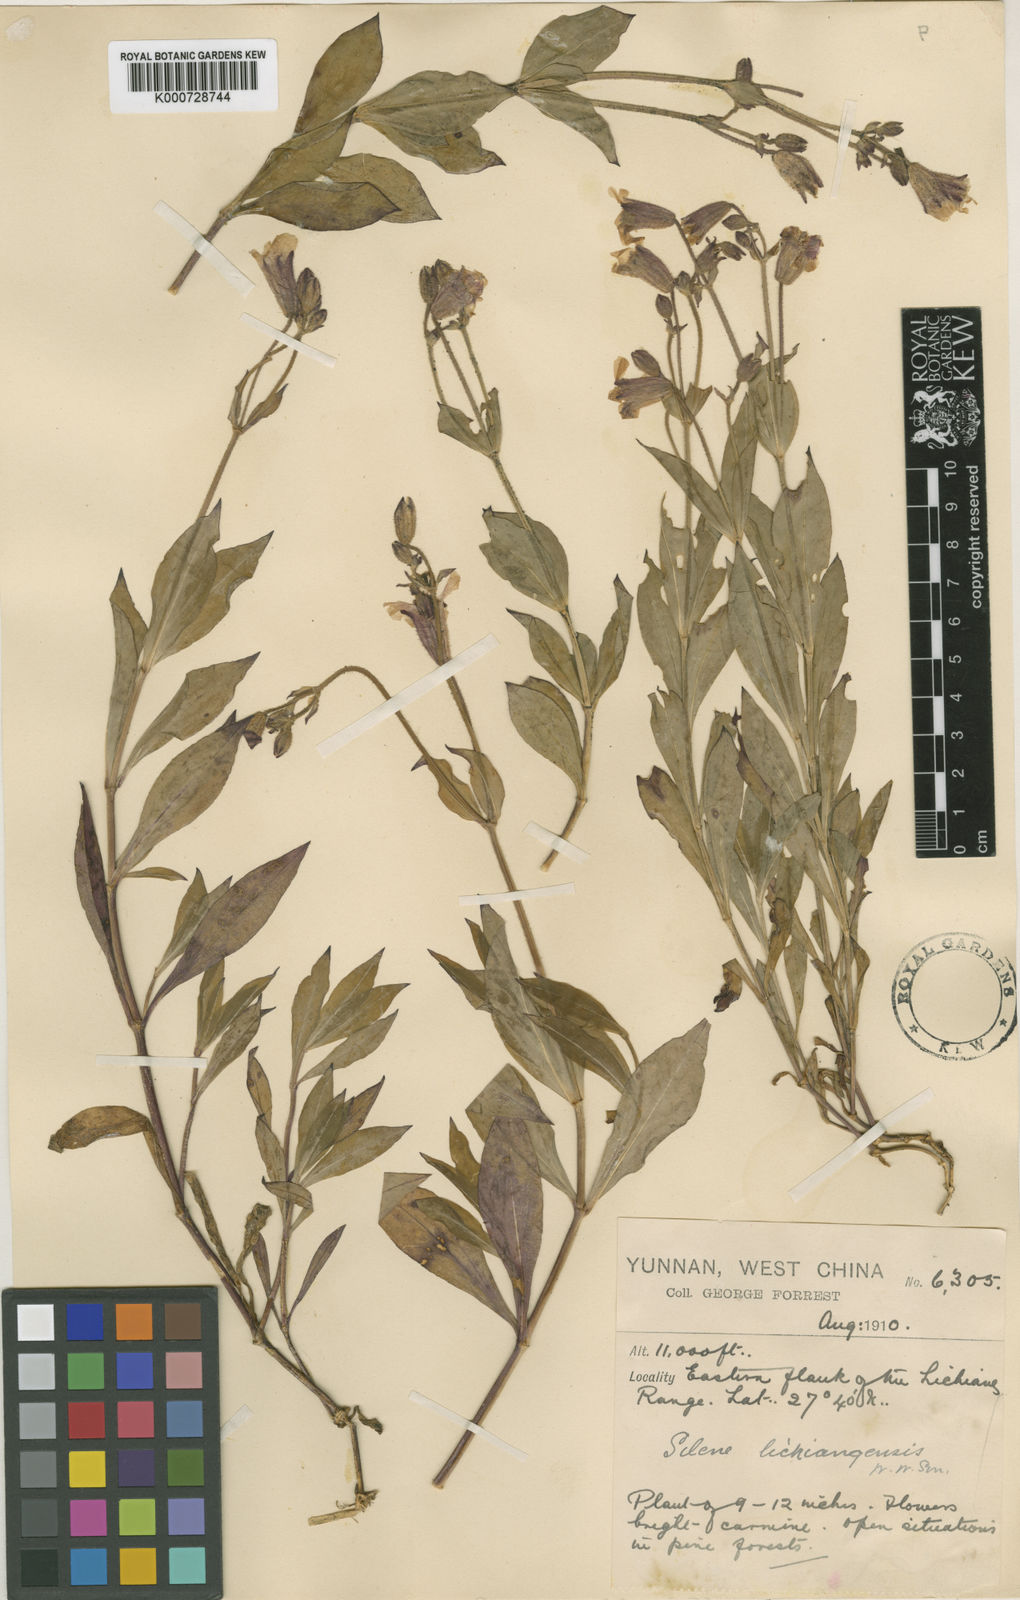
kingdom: Plantae
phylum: Tracheophyta
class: Magnoliopsida
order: Caryophyllales
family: Caryophyllaceae
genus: Silene
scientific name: Silene lichiangensis
